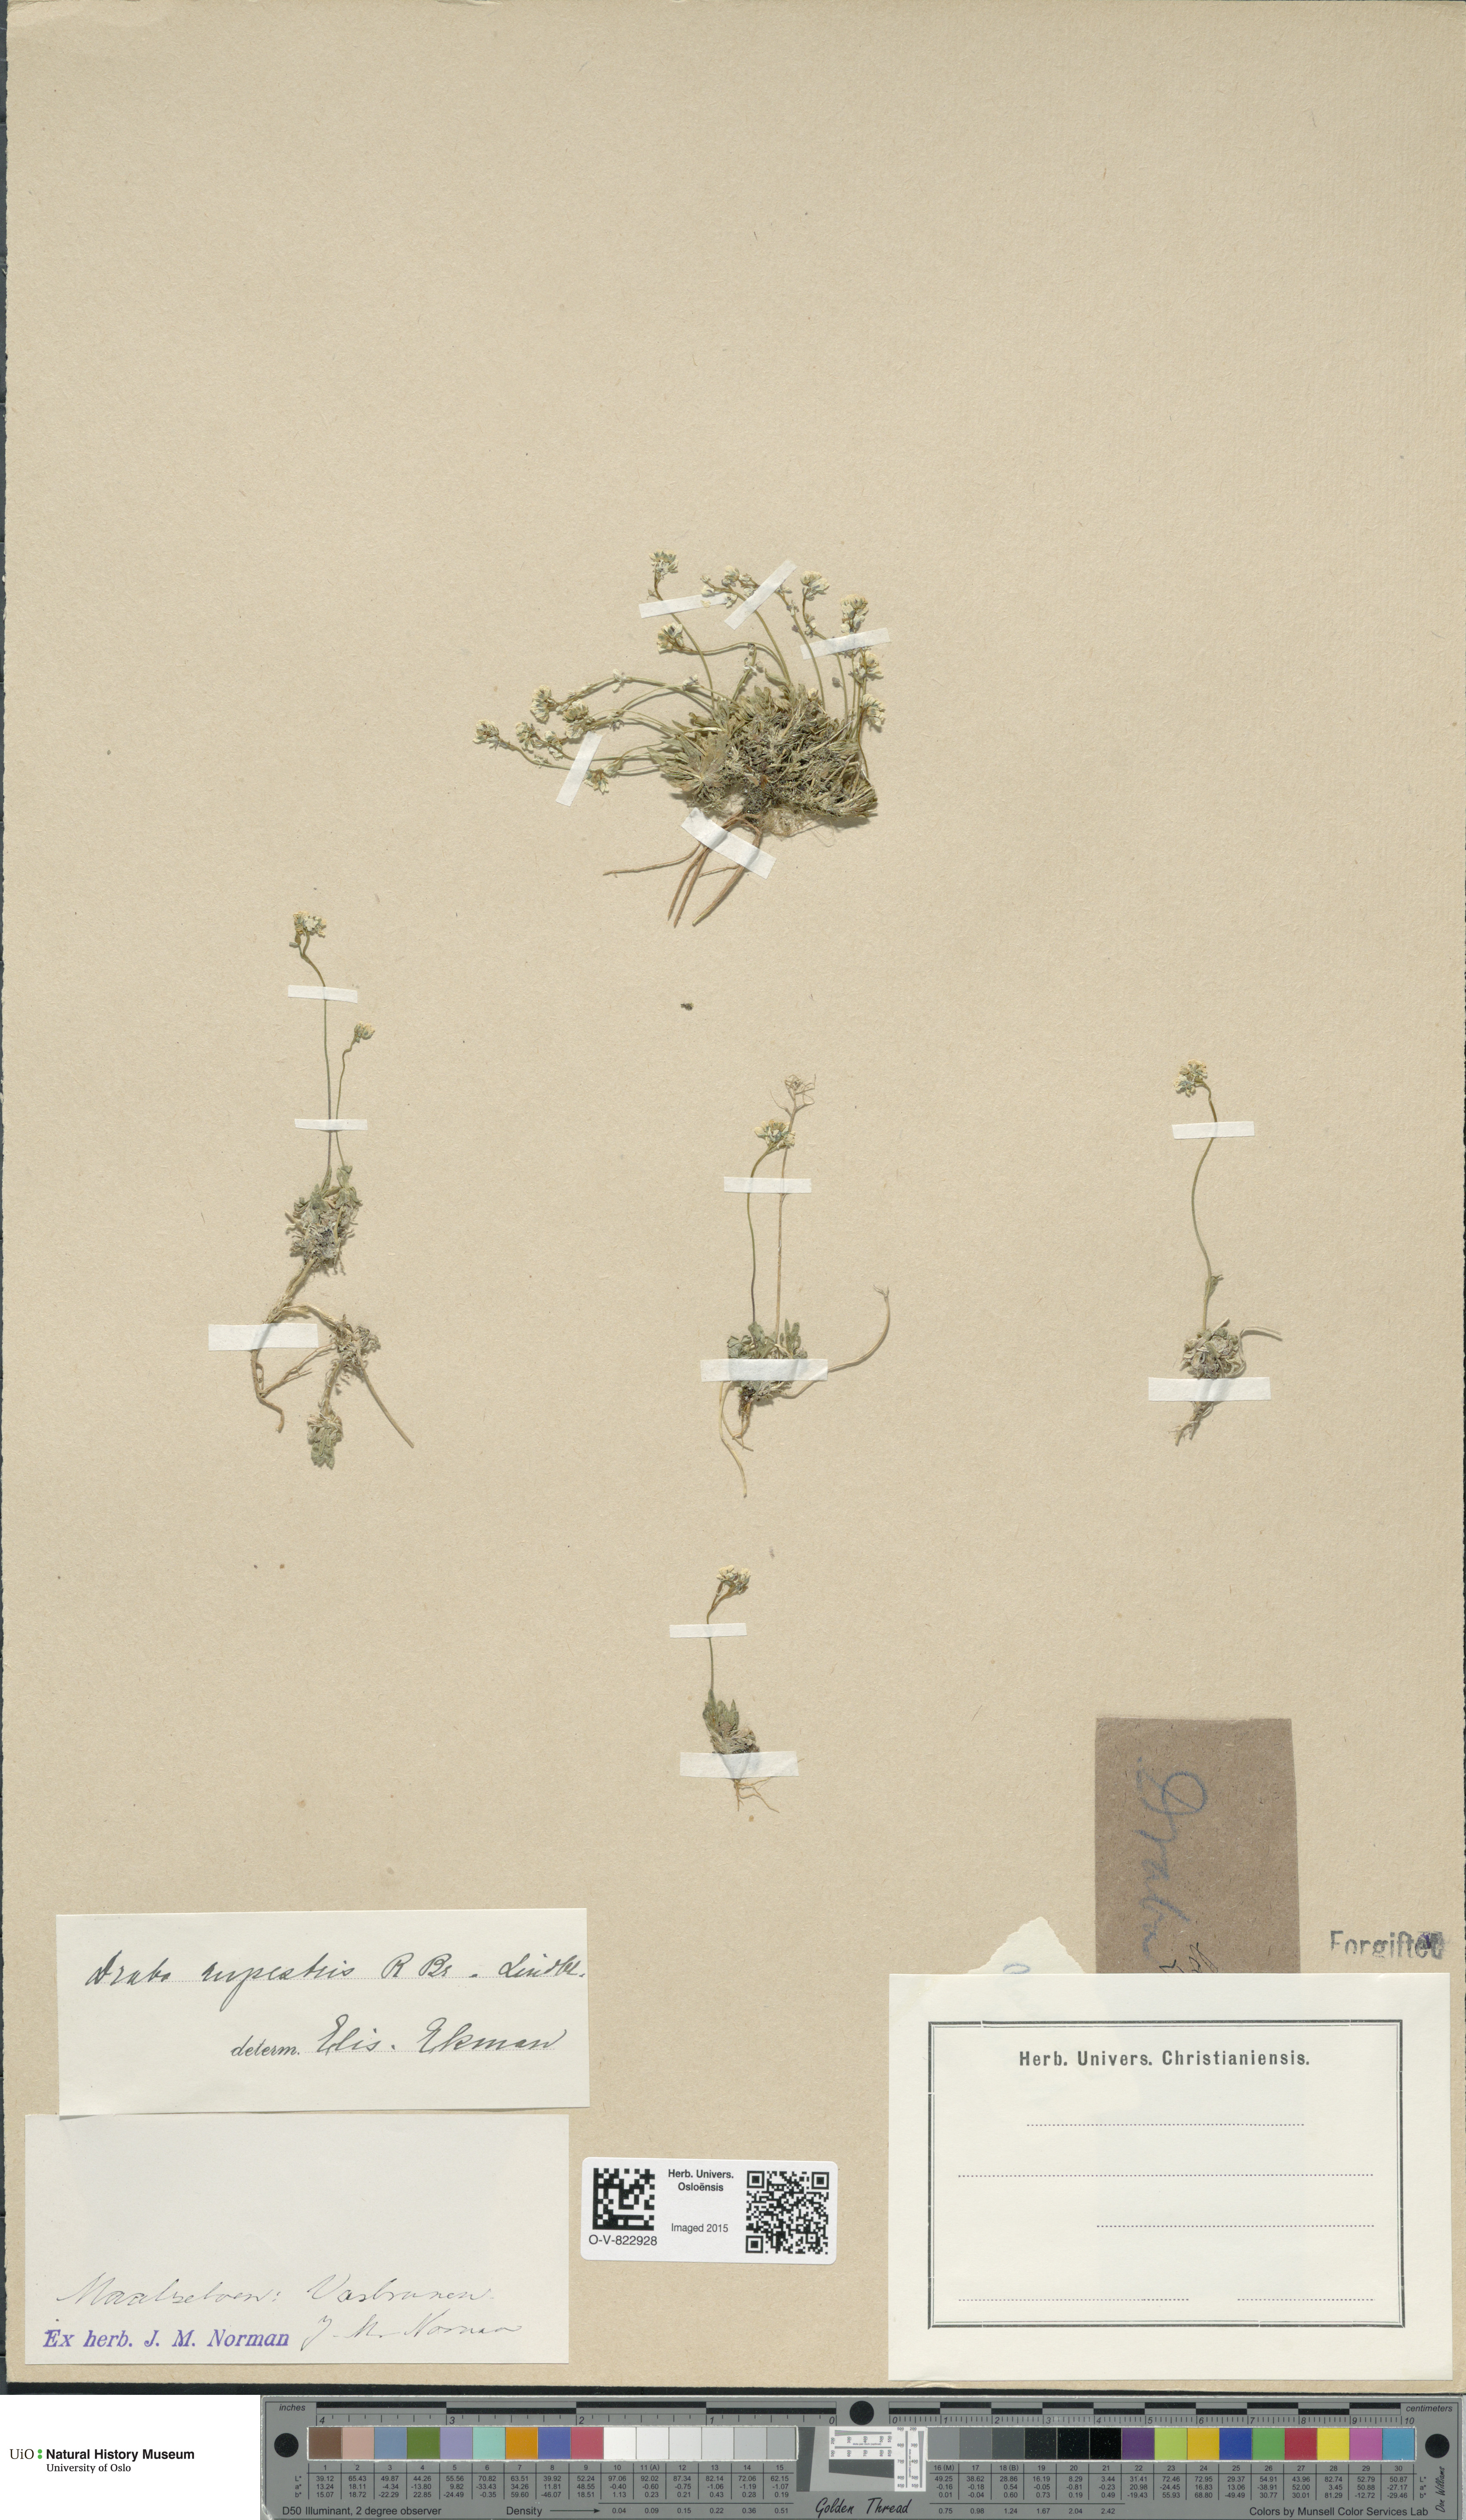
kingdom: Plantae
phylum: Tracheophyta
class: Magnoliopsida
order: Brassicales
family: Brassicaceae
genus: Draba
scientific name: Draba norvegica
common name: Rock whitlowgrass
